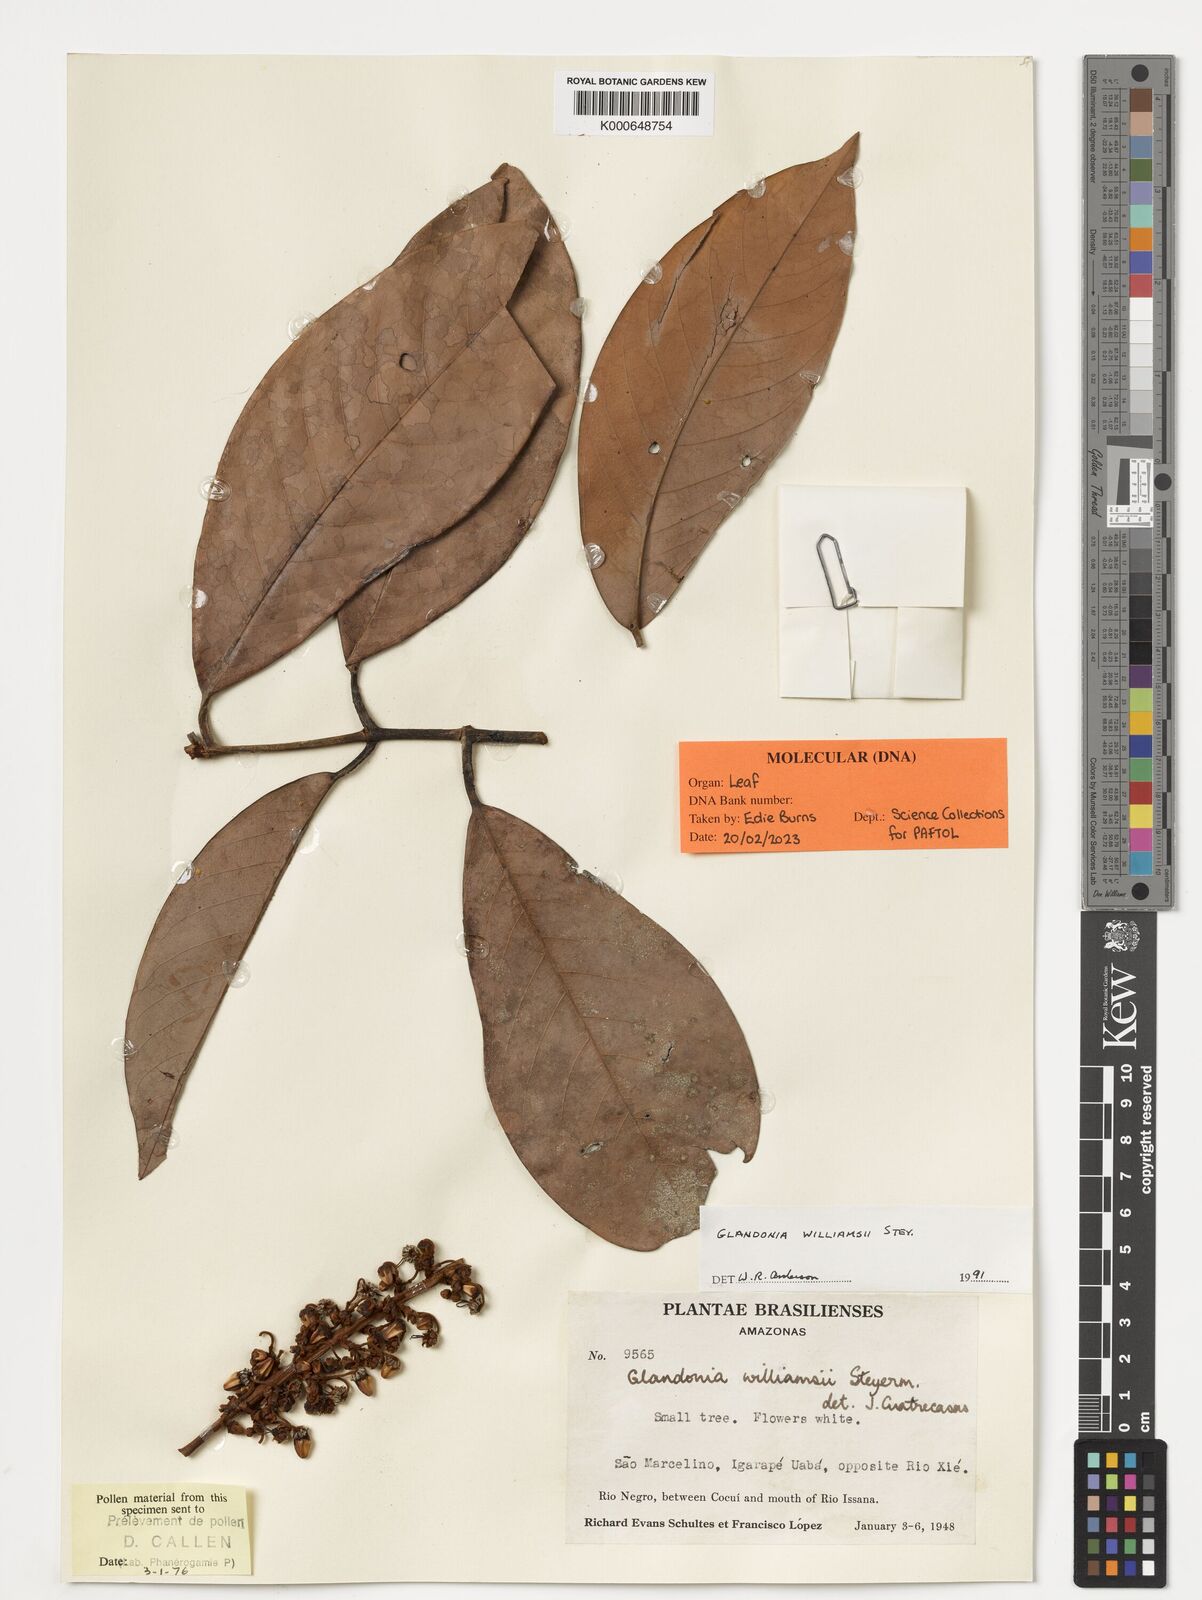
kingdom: Plantae
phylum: Tracheophyta
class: Magnoliopsida
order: Malpighiales
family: Malpighiaceae
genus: Glandonia
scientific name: Glandonia williamsii
